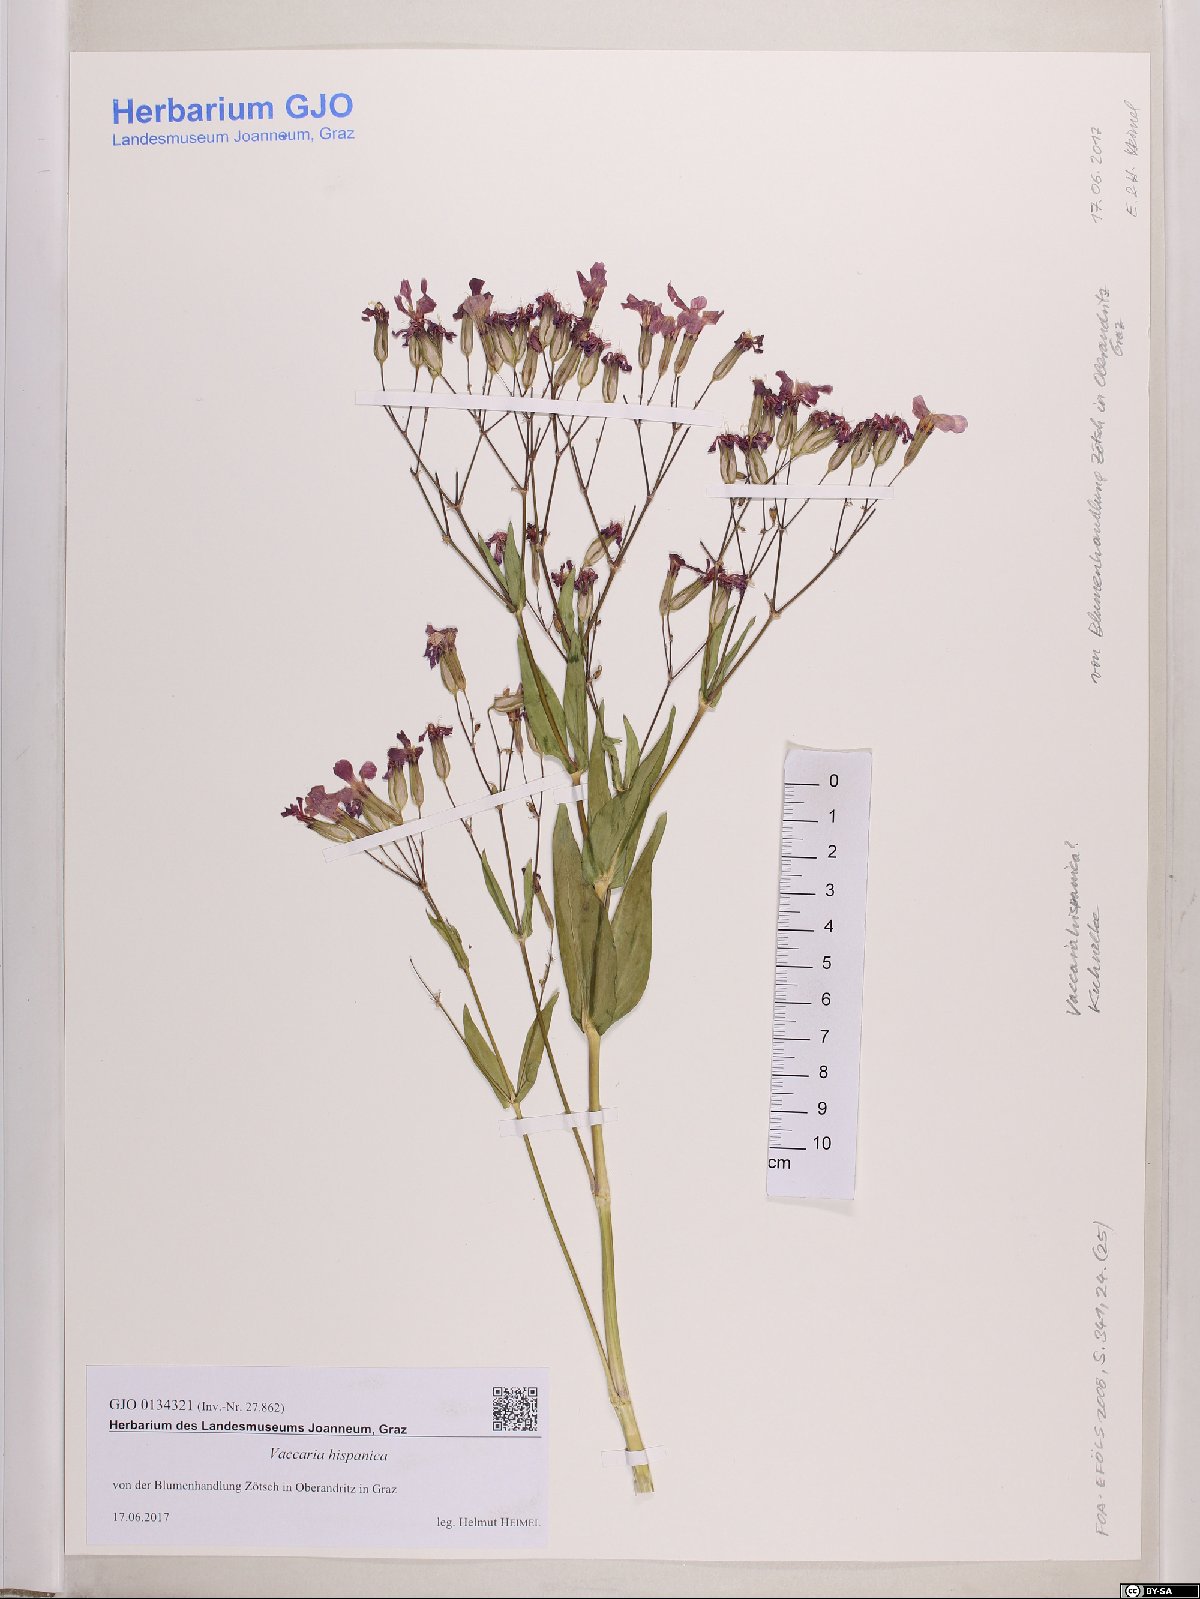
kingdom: Plantae
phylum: Tracheophyta
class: Magnoliopsida
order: Caryophyllales
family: Caryophyllaceae
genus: Gypsophila
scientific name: Gypsophila vaccaria
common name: Cow soapwort
